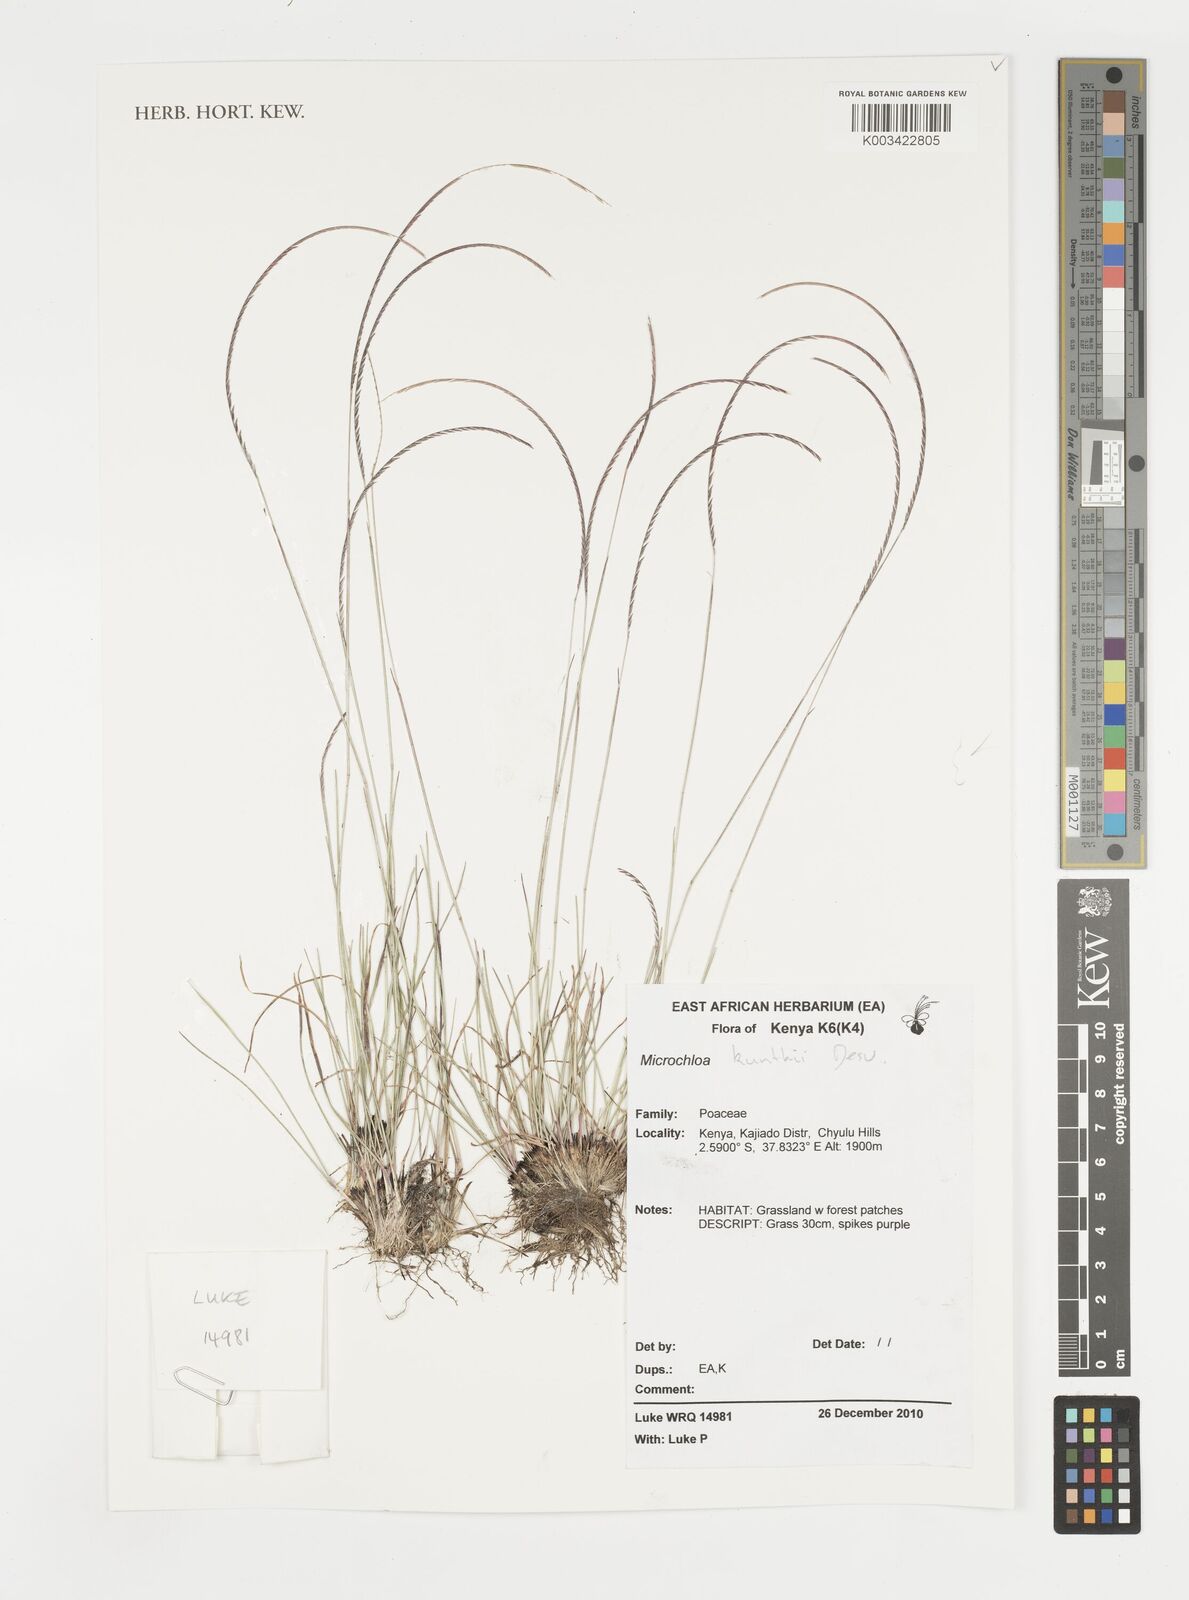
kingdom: Plantae
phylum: Tracheophyta
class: Liliopsida
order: Poales
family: Poaceae
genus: Microchloa
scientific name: Microchloa kunthii
